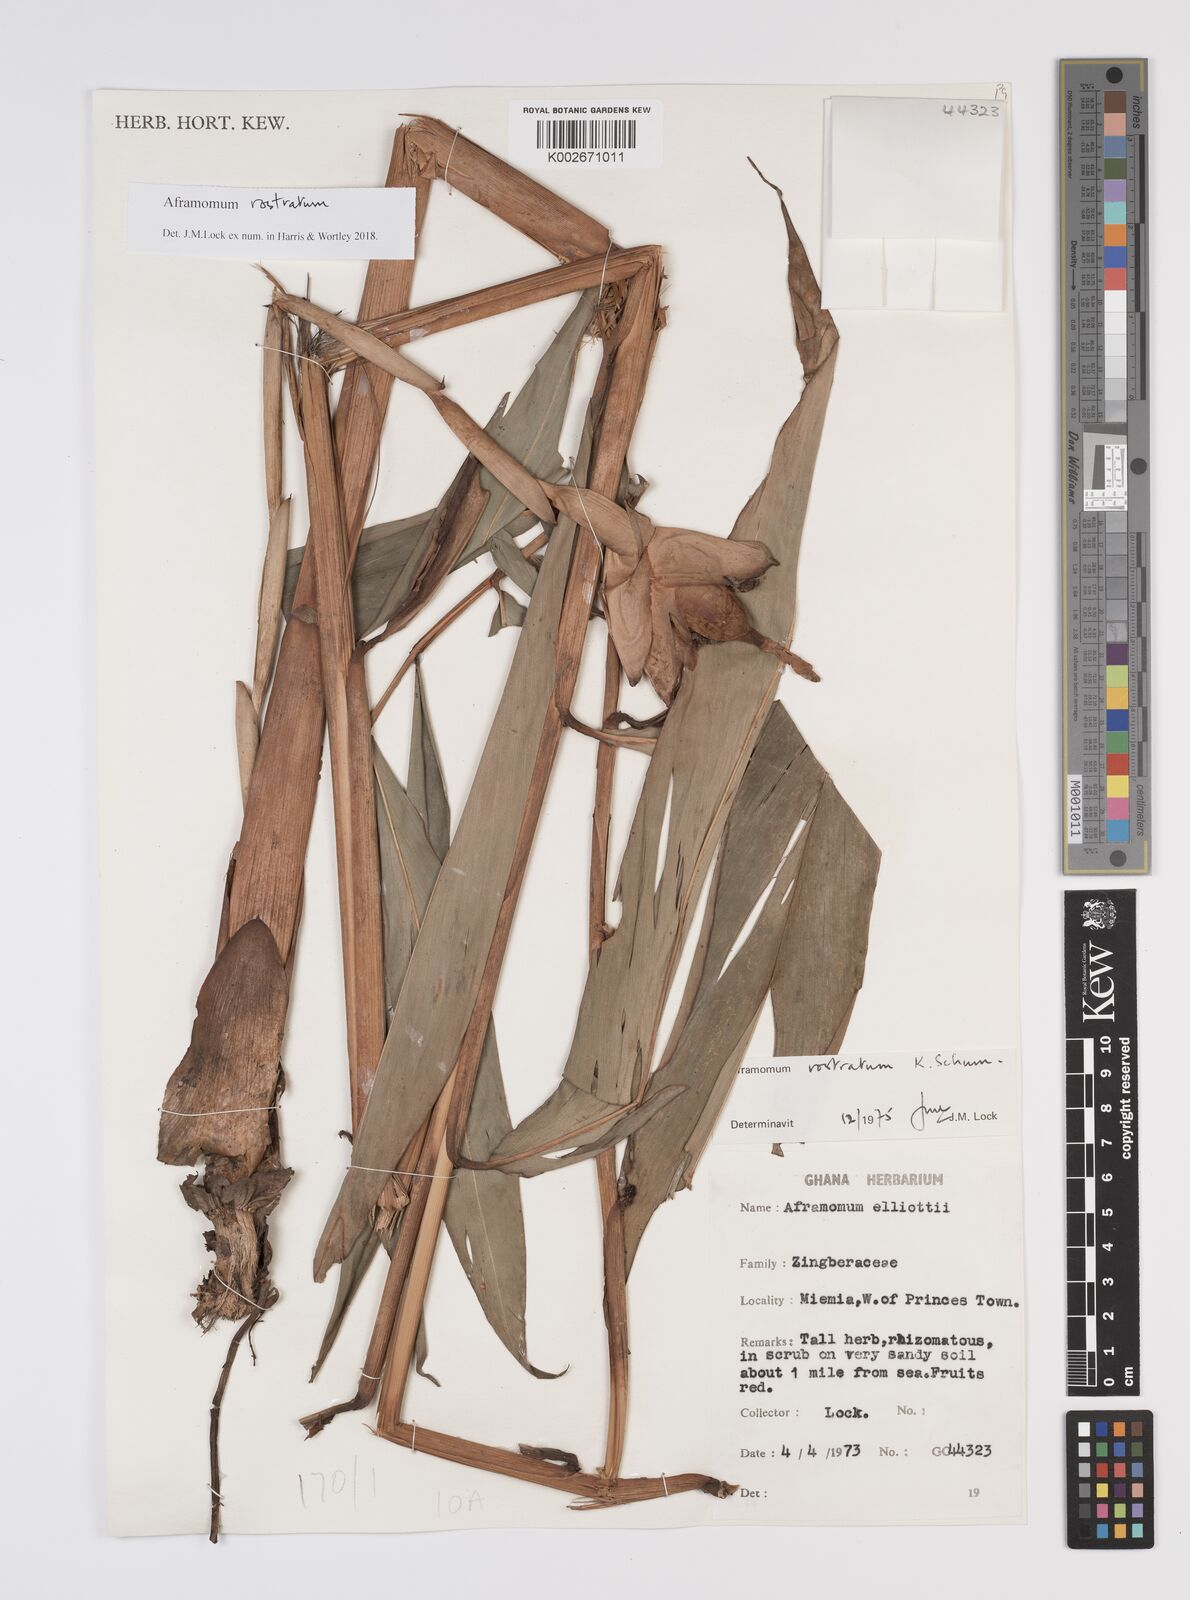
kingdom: Plantae
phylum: Tracheophyta
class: Liliopsida
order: Zingiberales
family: Zingiberaceae
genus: Aframomum
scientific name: Aframomum rostratum
